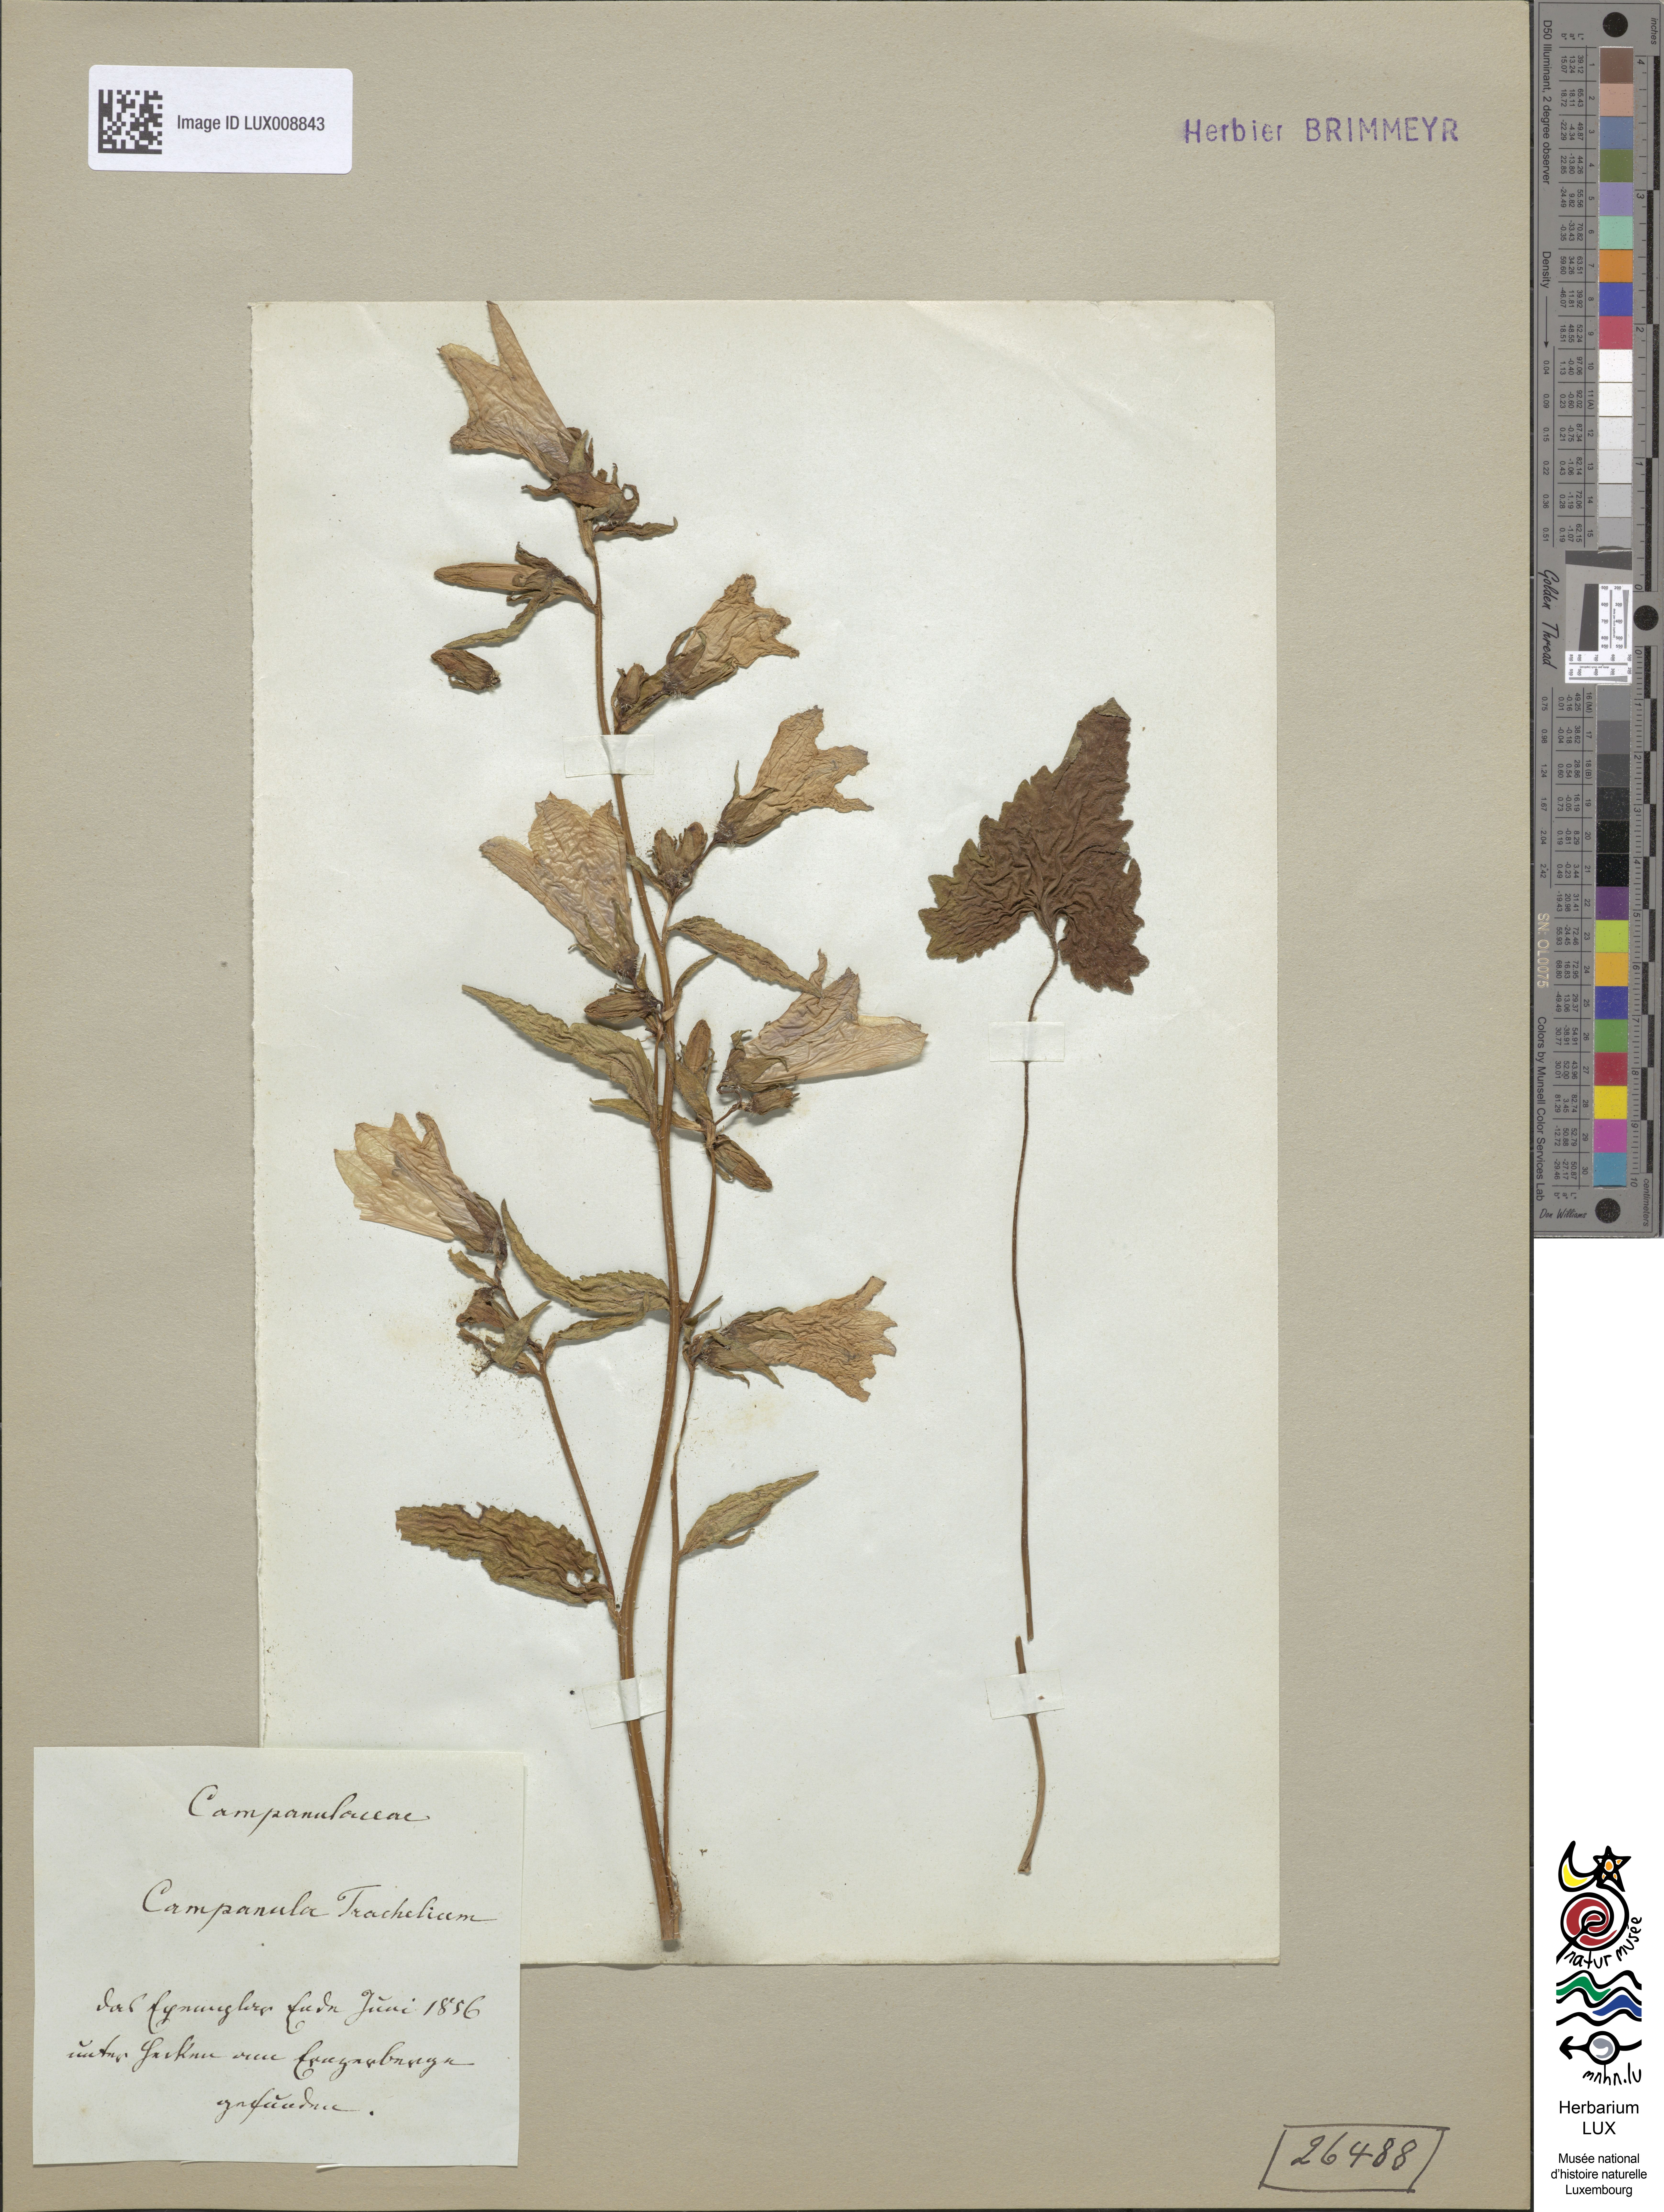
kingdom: Plantae
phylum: Tracheophyta
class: Magnoliopsida
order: Asterales
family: Campanulaceae
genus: Campanula
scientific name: Campanula trachelium
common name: Nettle-leaved bellflower
